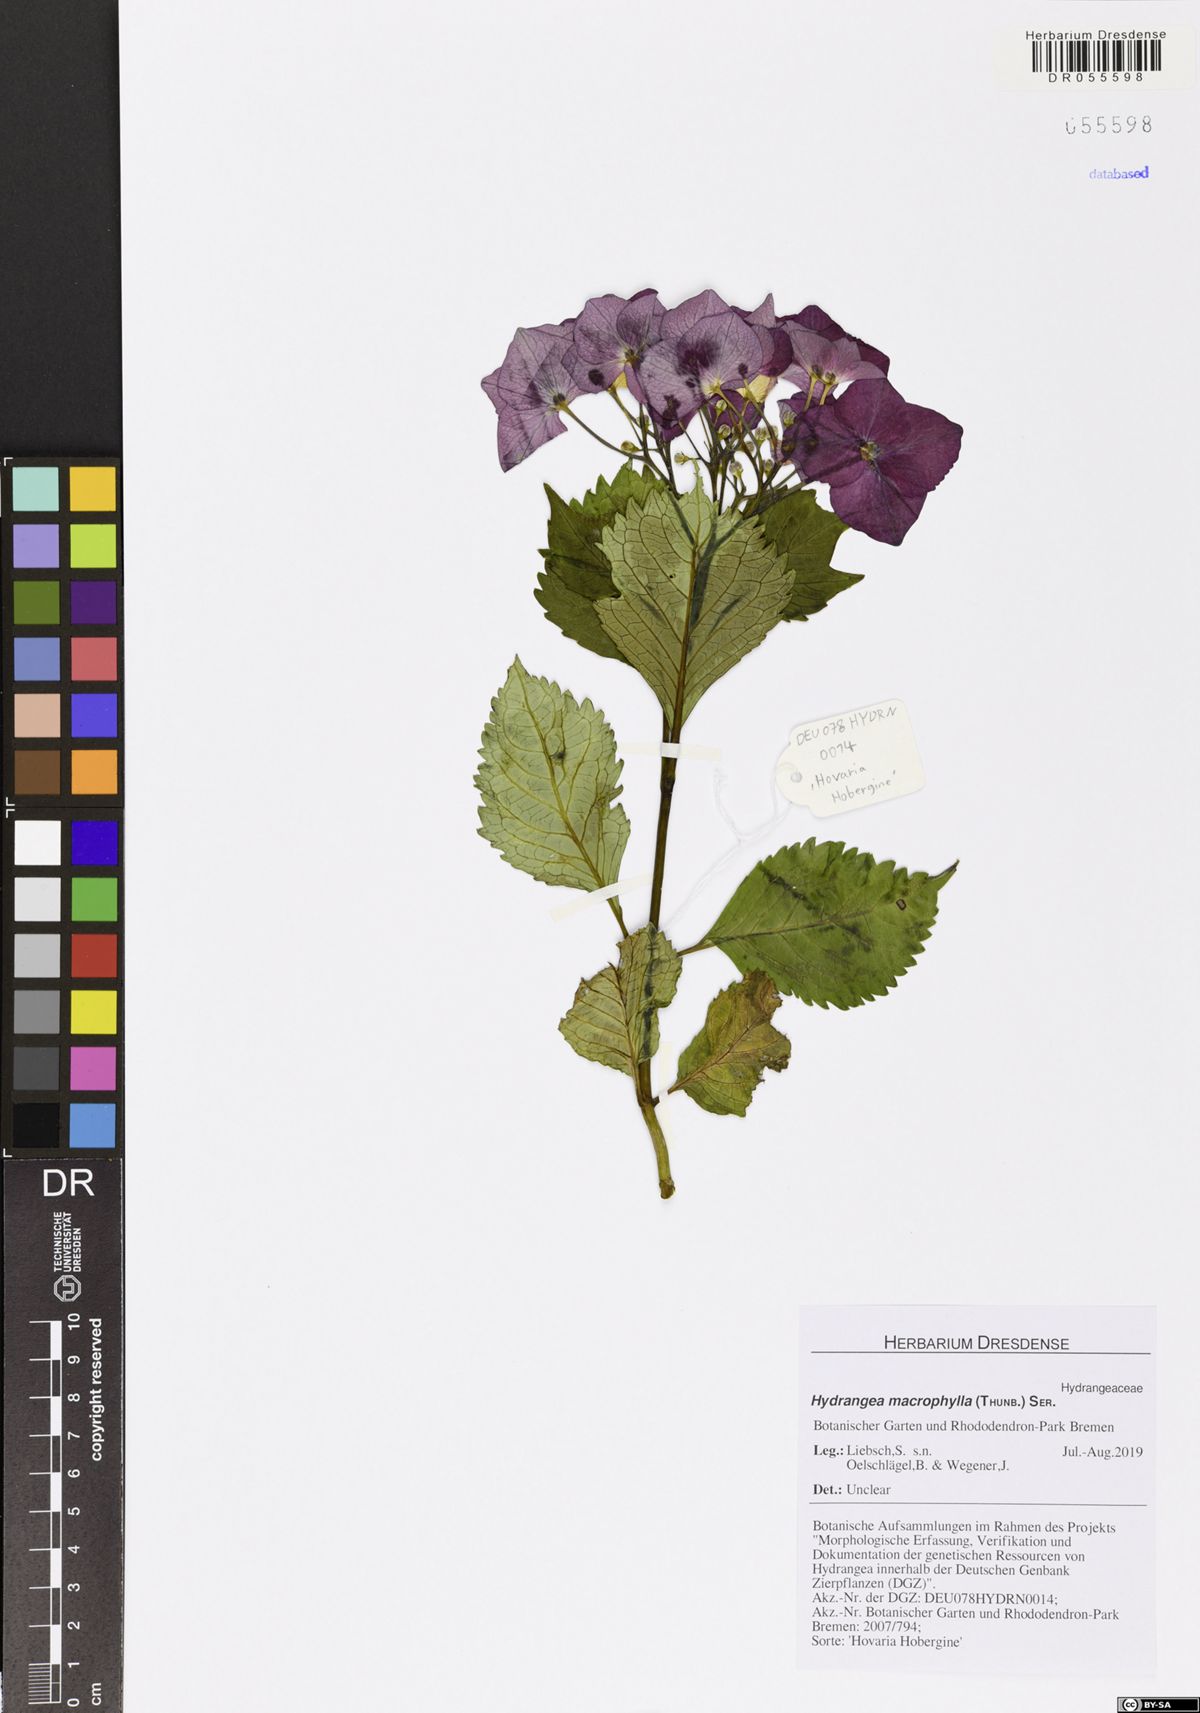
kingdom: Plantae
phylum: Tracheophyta
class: Magnoliopsida
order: Cornales
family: Hydrangeaceae
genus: Hydrangea
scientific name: Hydrangea macrophylla
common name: Hydrangea
